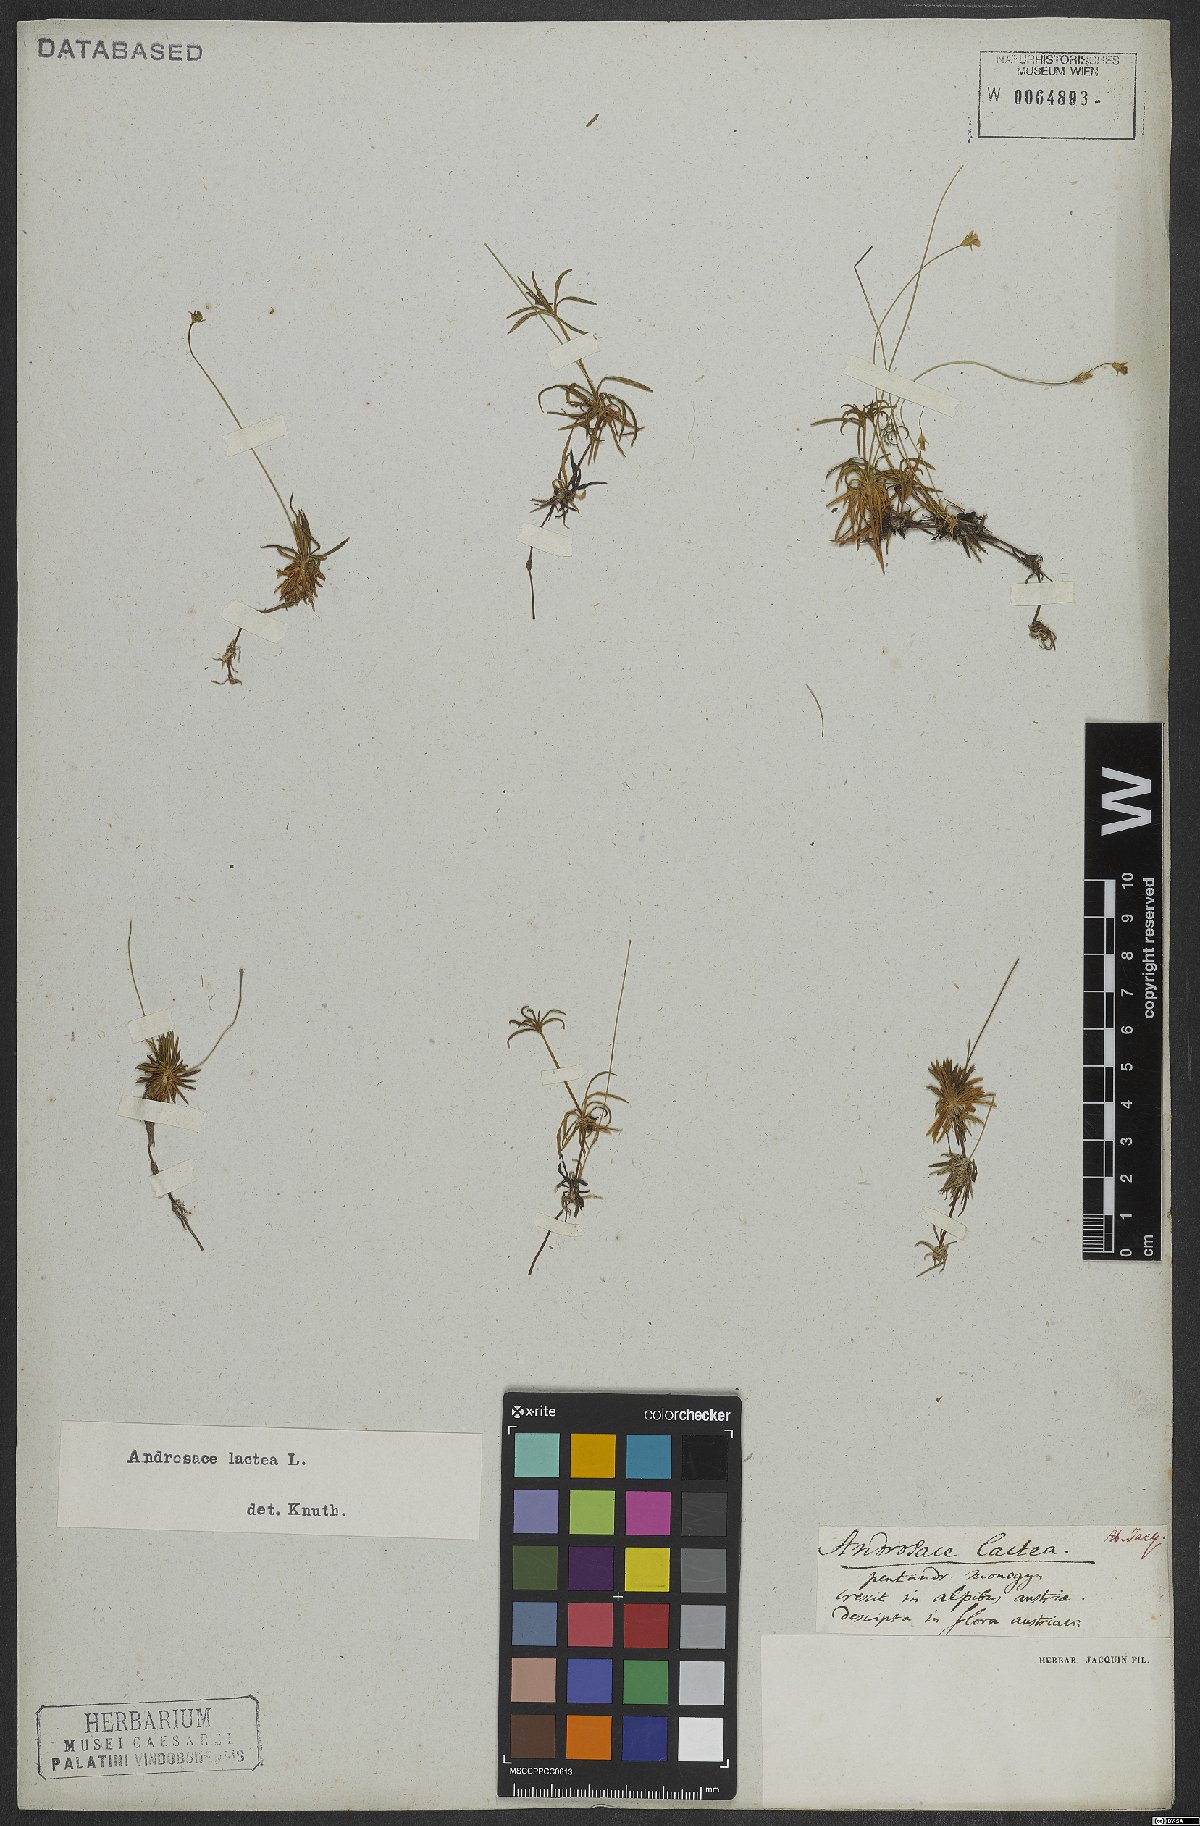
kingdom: Plantae
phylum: Tracheophyta
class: Magnoliopsida
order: Ericales
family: Primulaceae
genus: Androsace
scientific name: Androsace lactea
